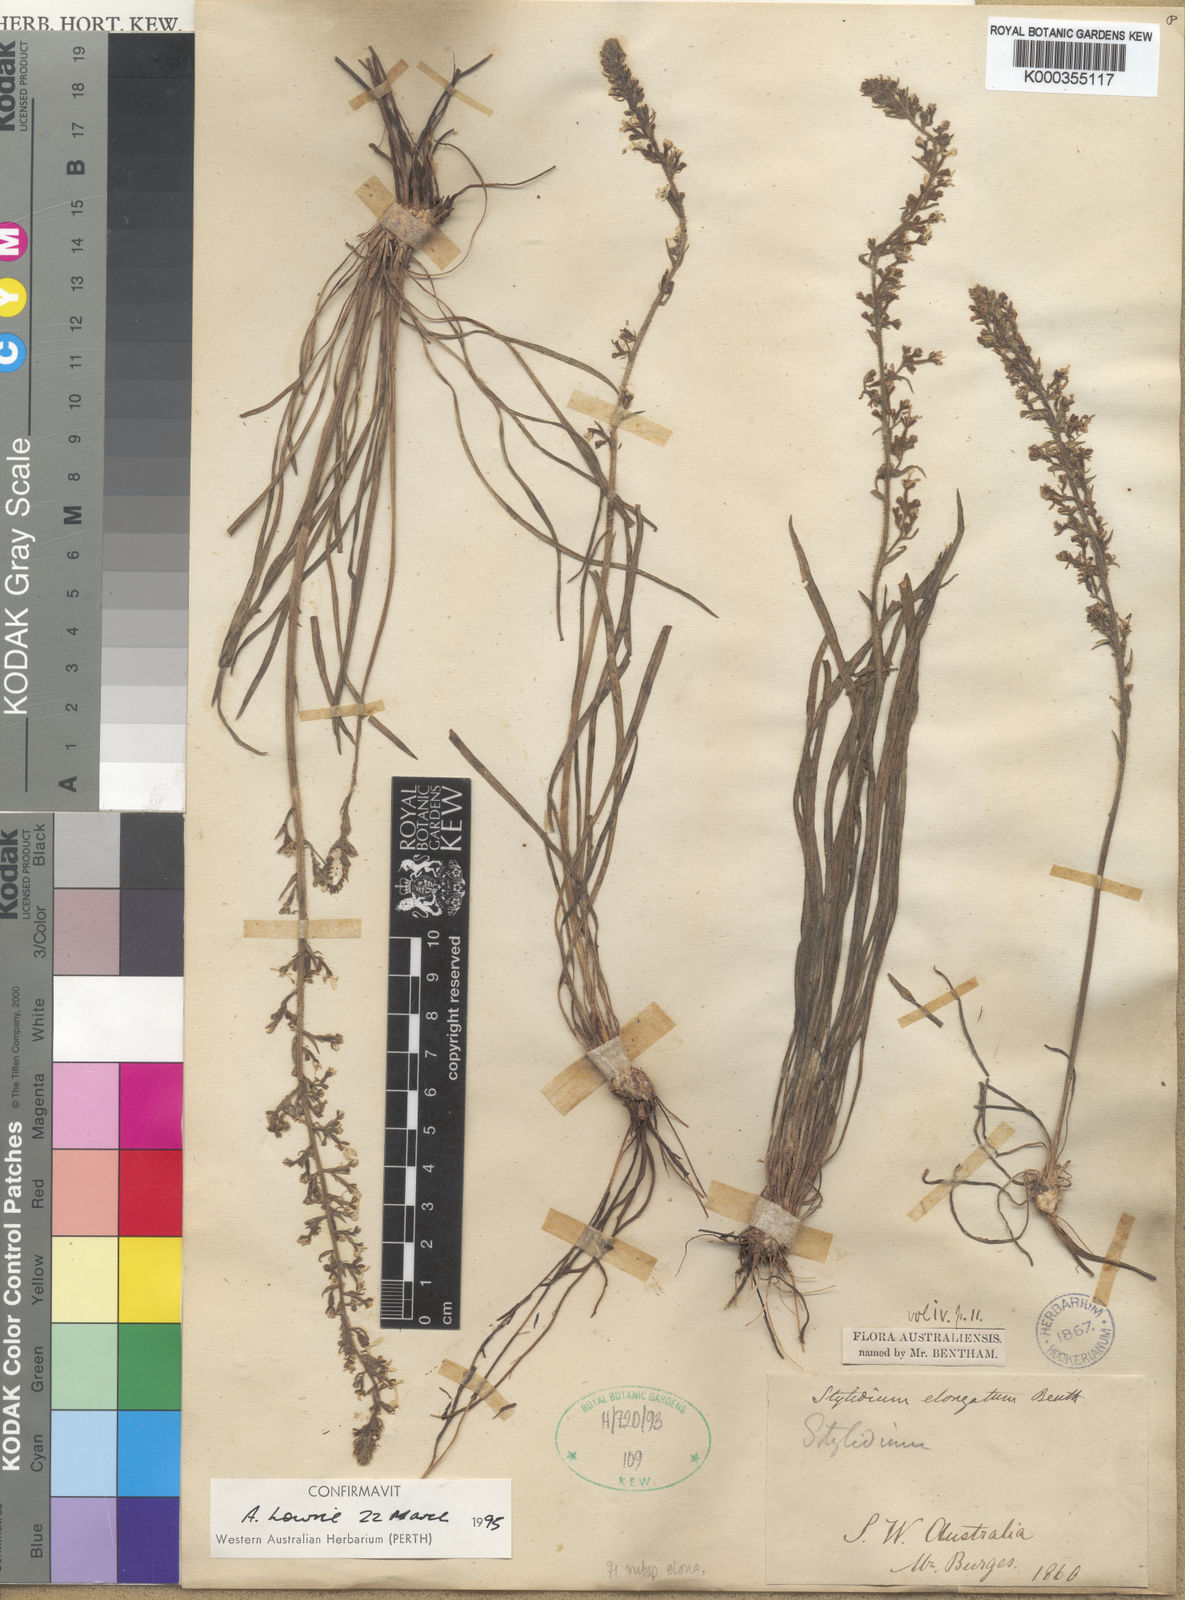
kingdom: Plantae
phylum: Tracheophyta
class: Magnoliopsida
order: Asterales
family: Stylidiaceae
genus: Stylidium
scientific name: Stylidium elongatum
